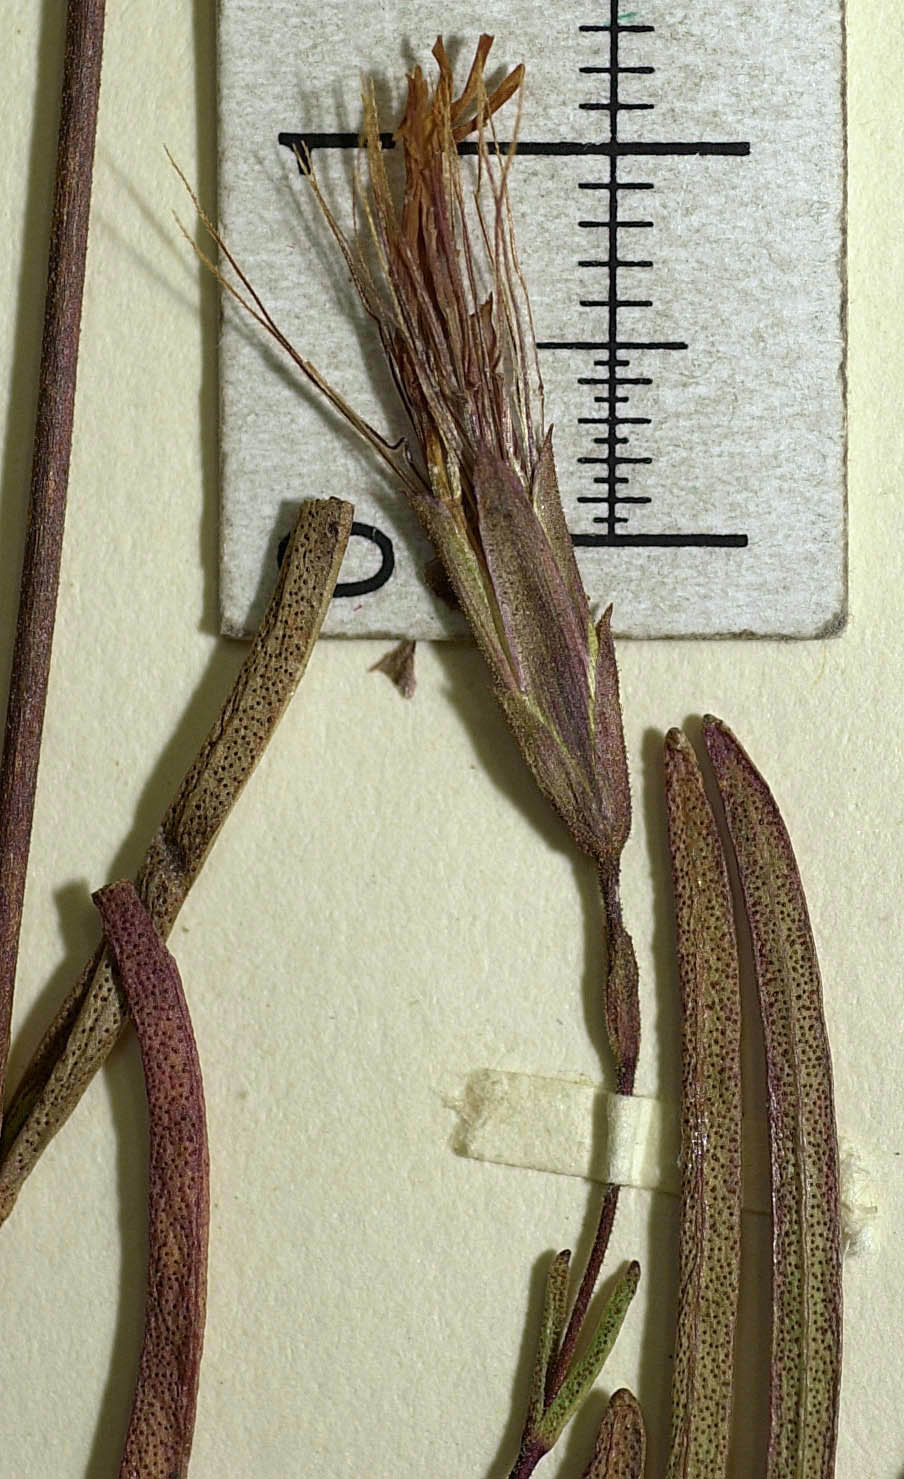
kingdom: Plantae
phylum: Tracheophyta
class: Magnoliopsida
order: Asterales
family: Asteraceae
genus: Carphochaete
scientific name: Carphochaete schaffneri
